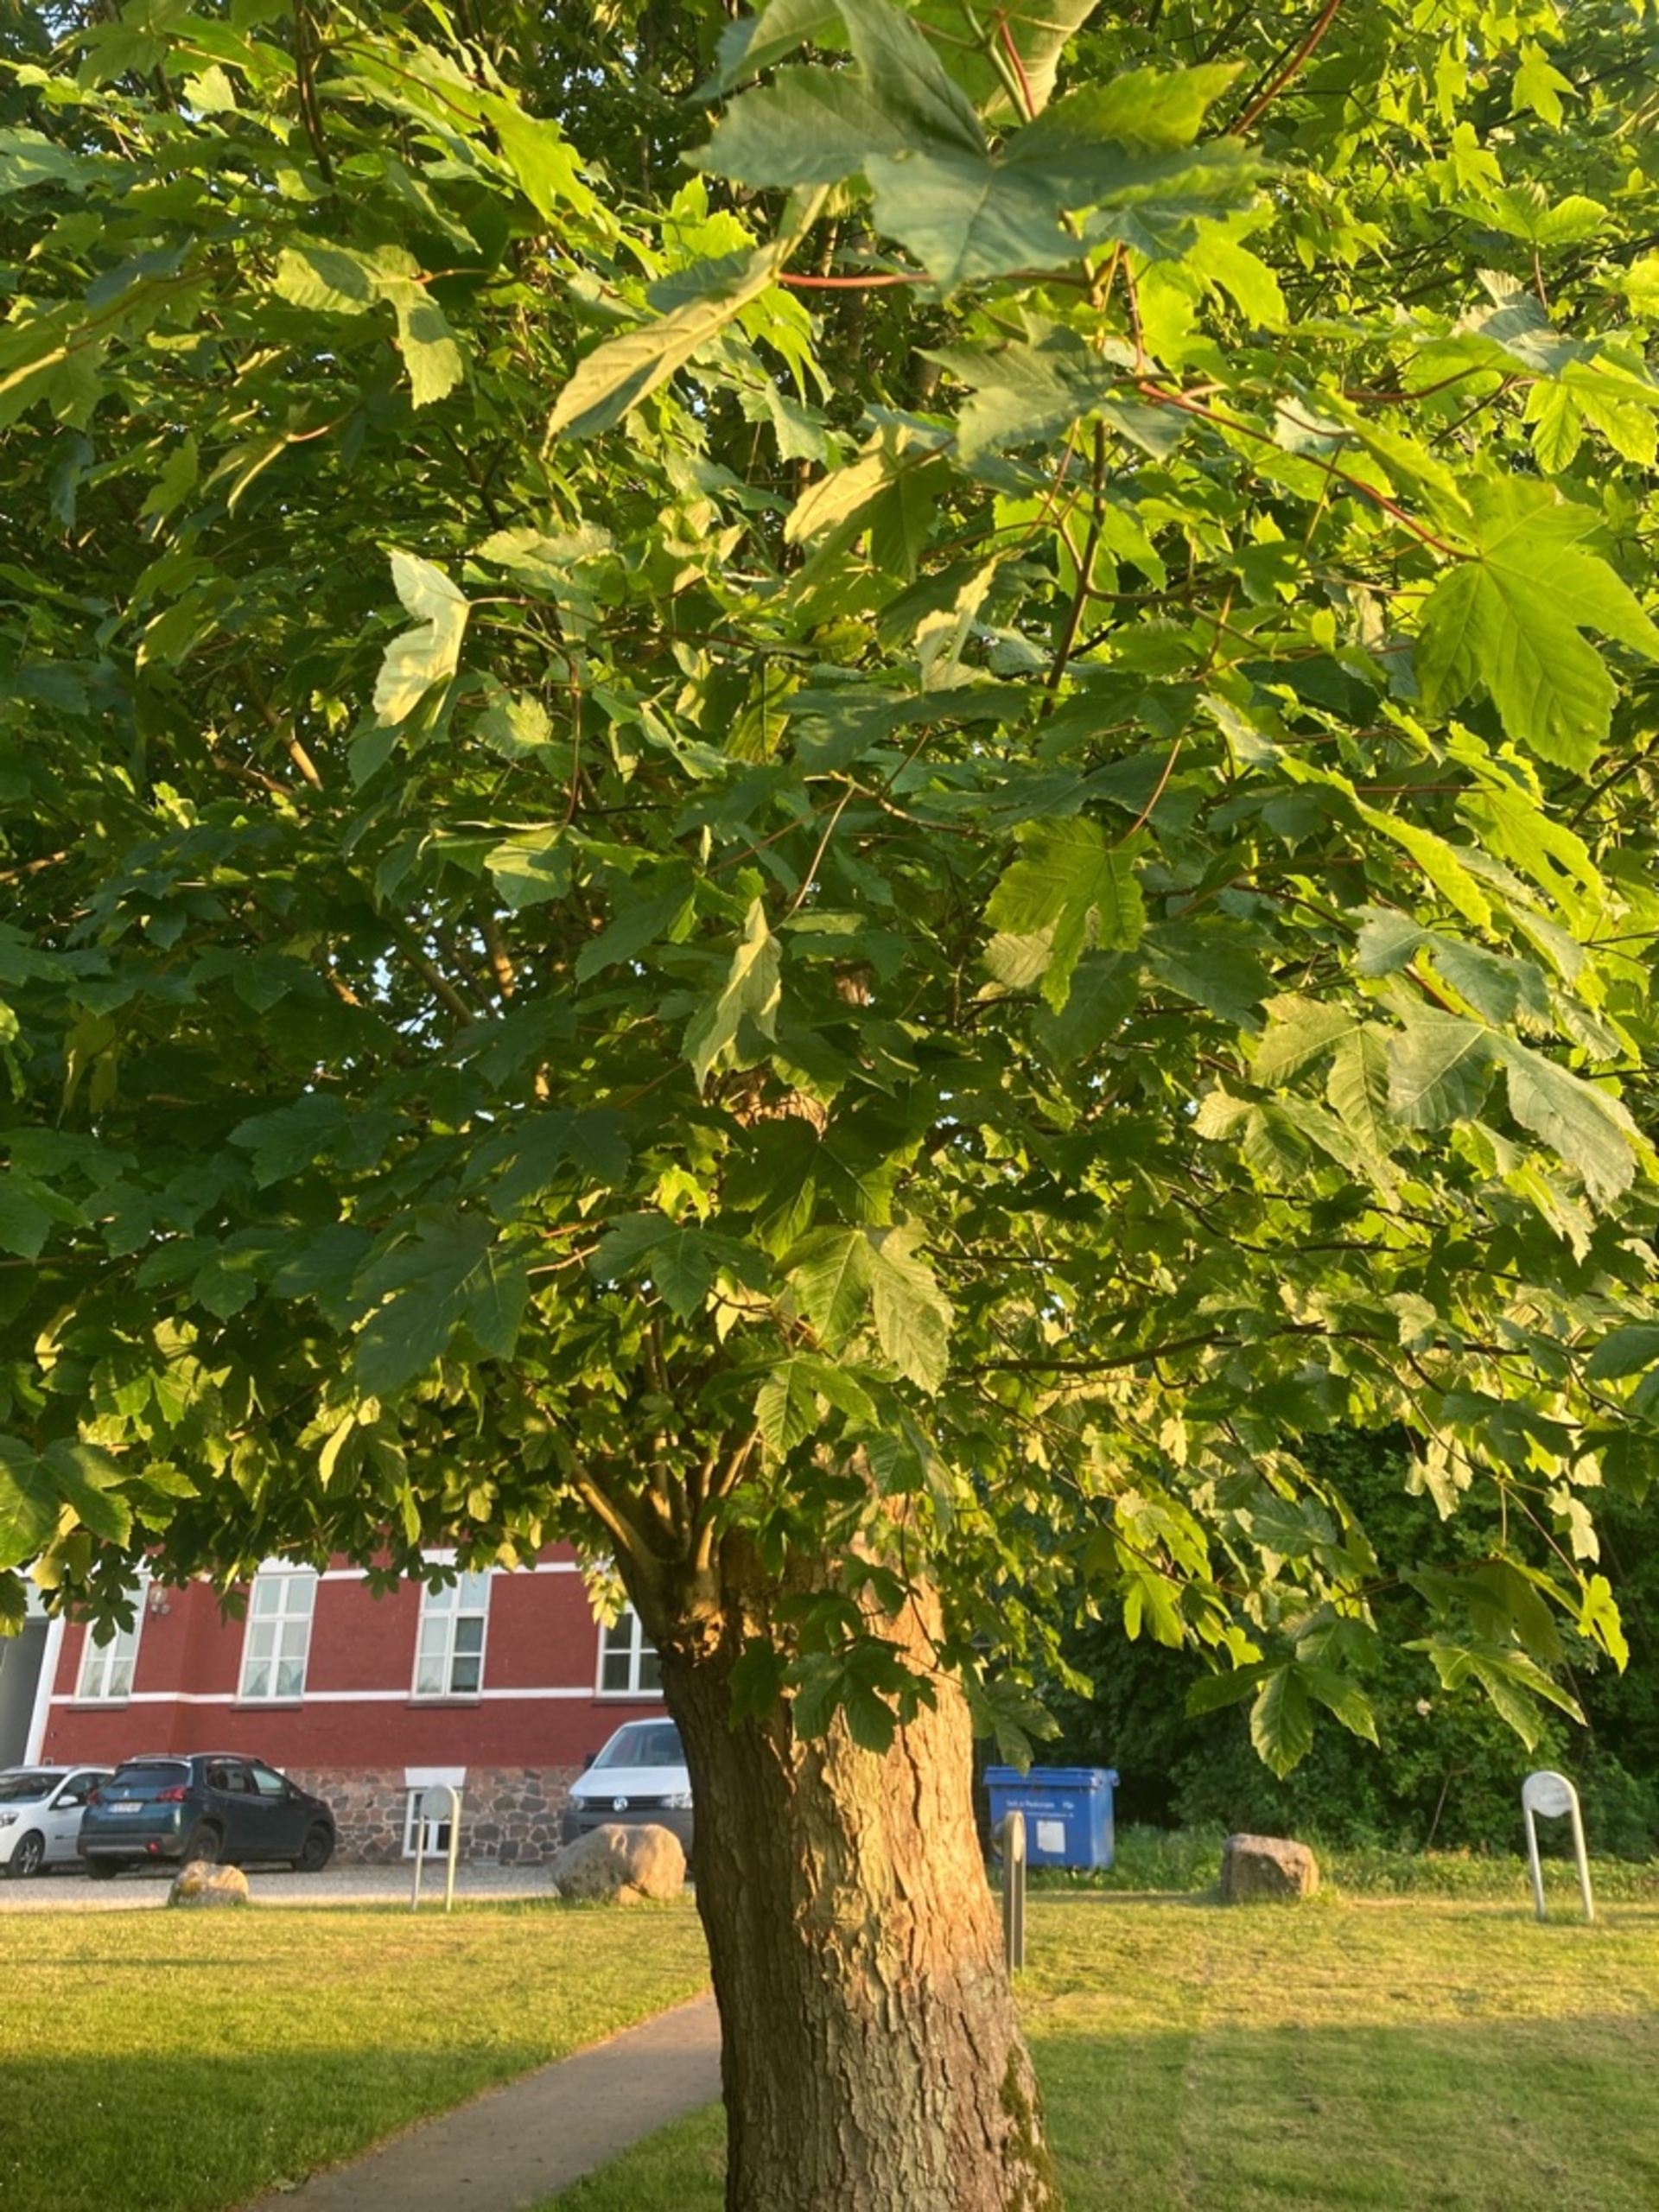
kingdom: Plantae
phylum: Tracheophyta
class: Magnoliopsida
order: Sapindales
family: Sapindaceae
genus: Acer
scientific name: Acer pseudoplatanus
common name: Ahorn
